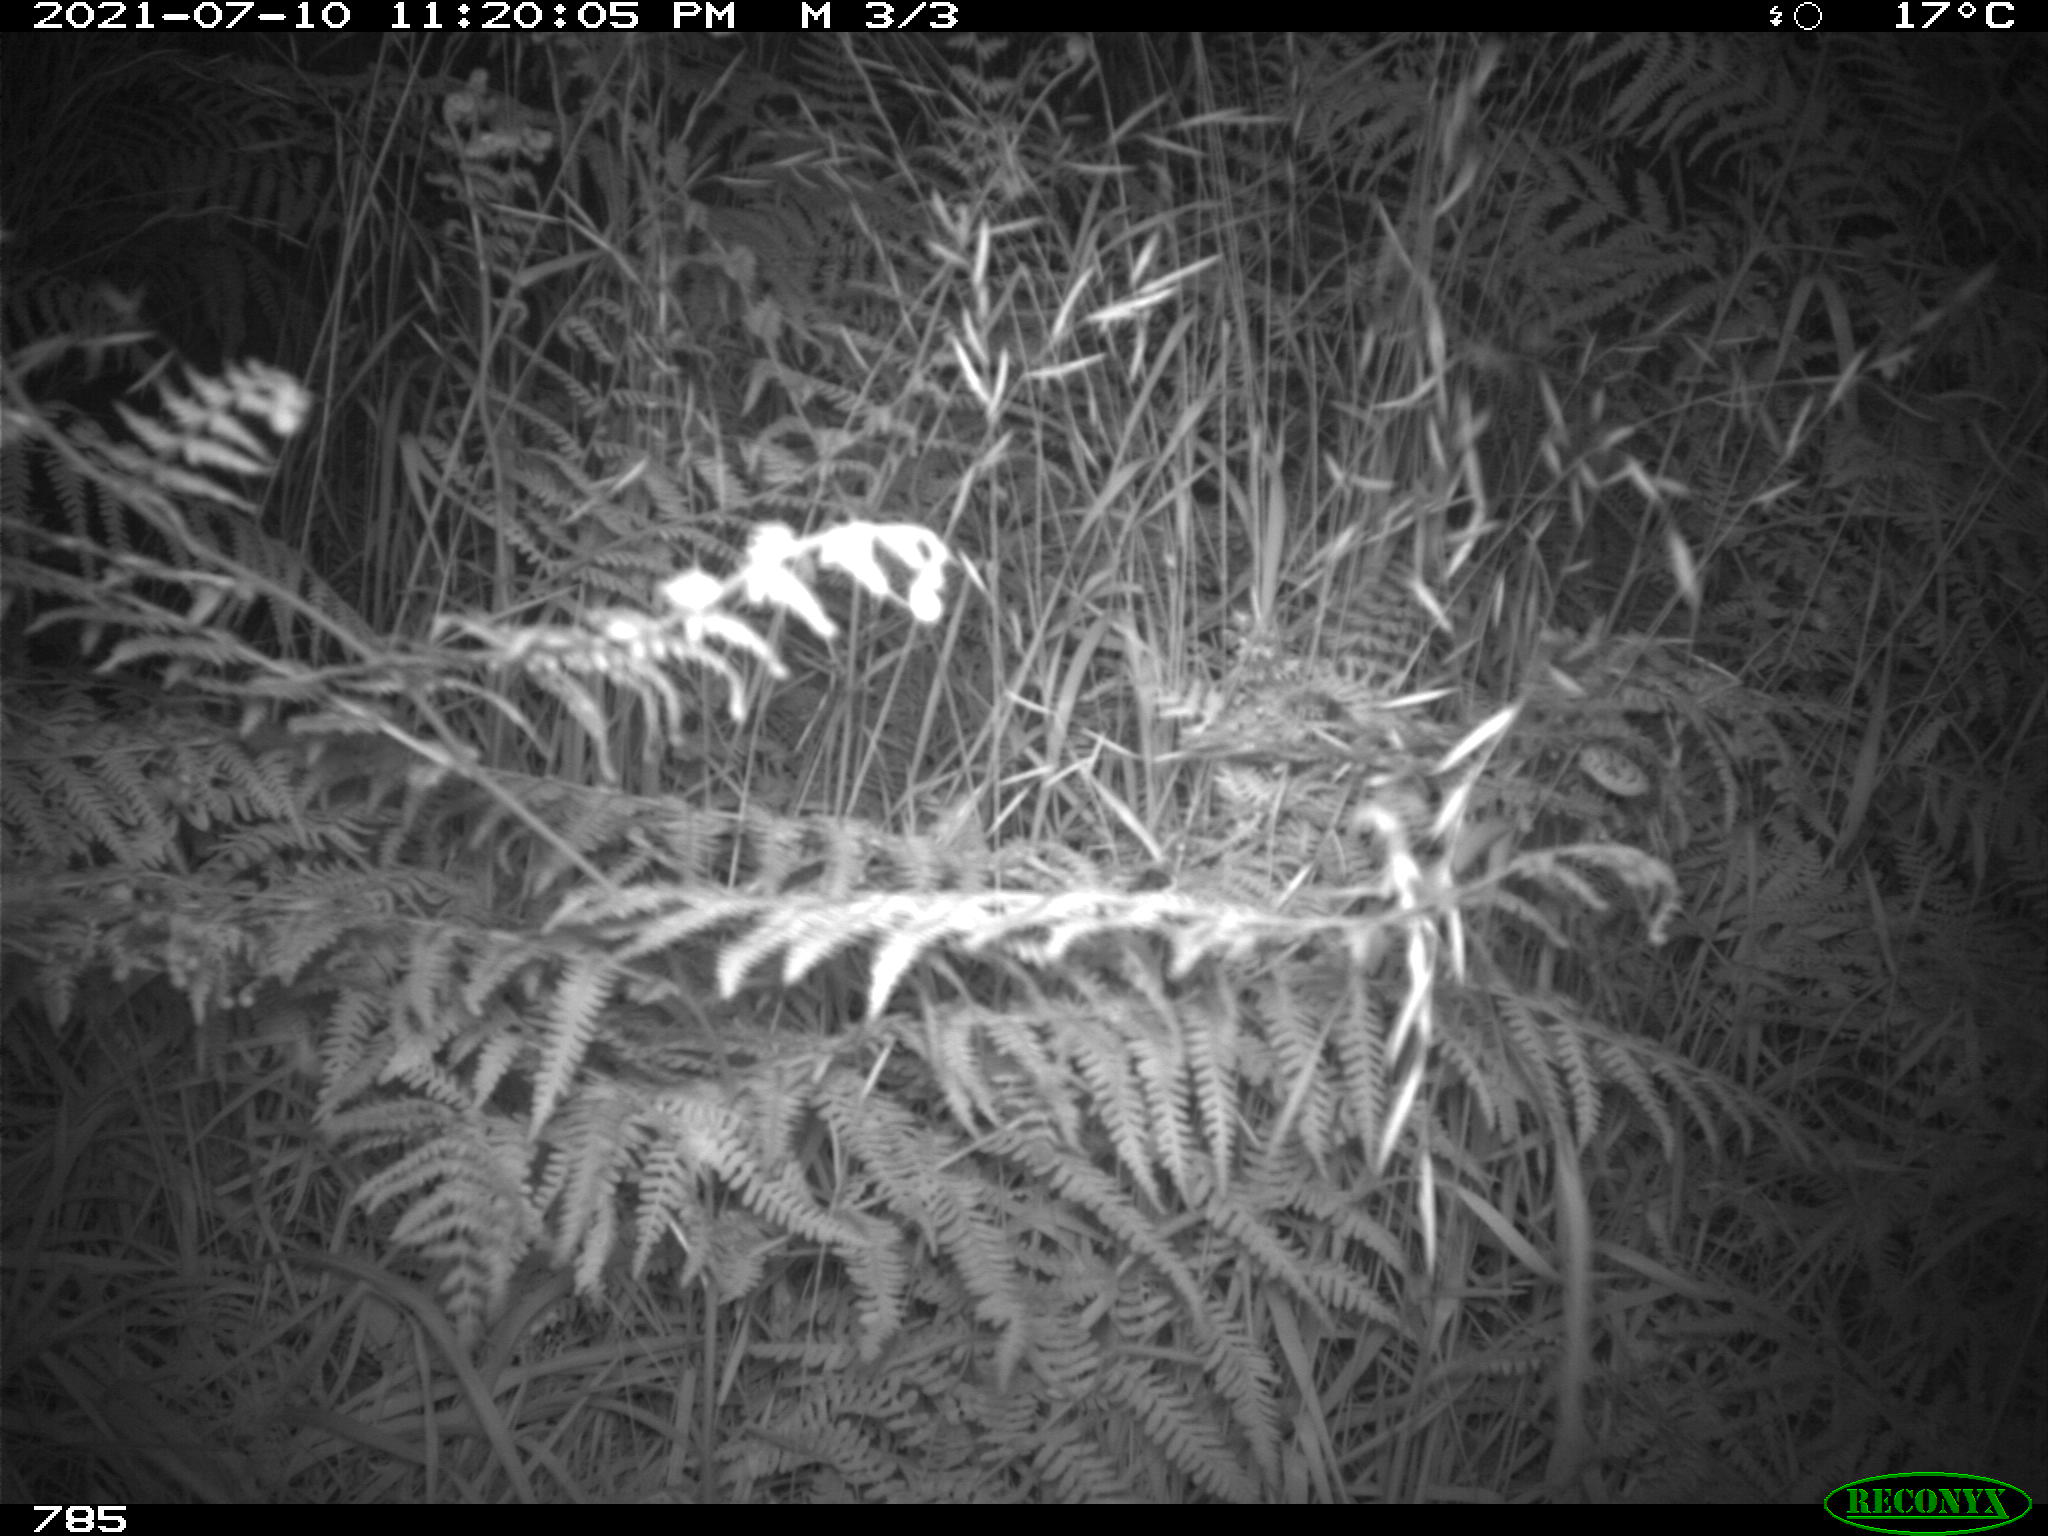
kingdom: Animalia
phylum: Chordata
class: Mammalia
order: Artiodactyla
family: Suidae
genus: Sus
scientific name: Sus scrofa
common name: Wild boar
